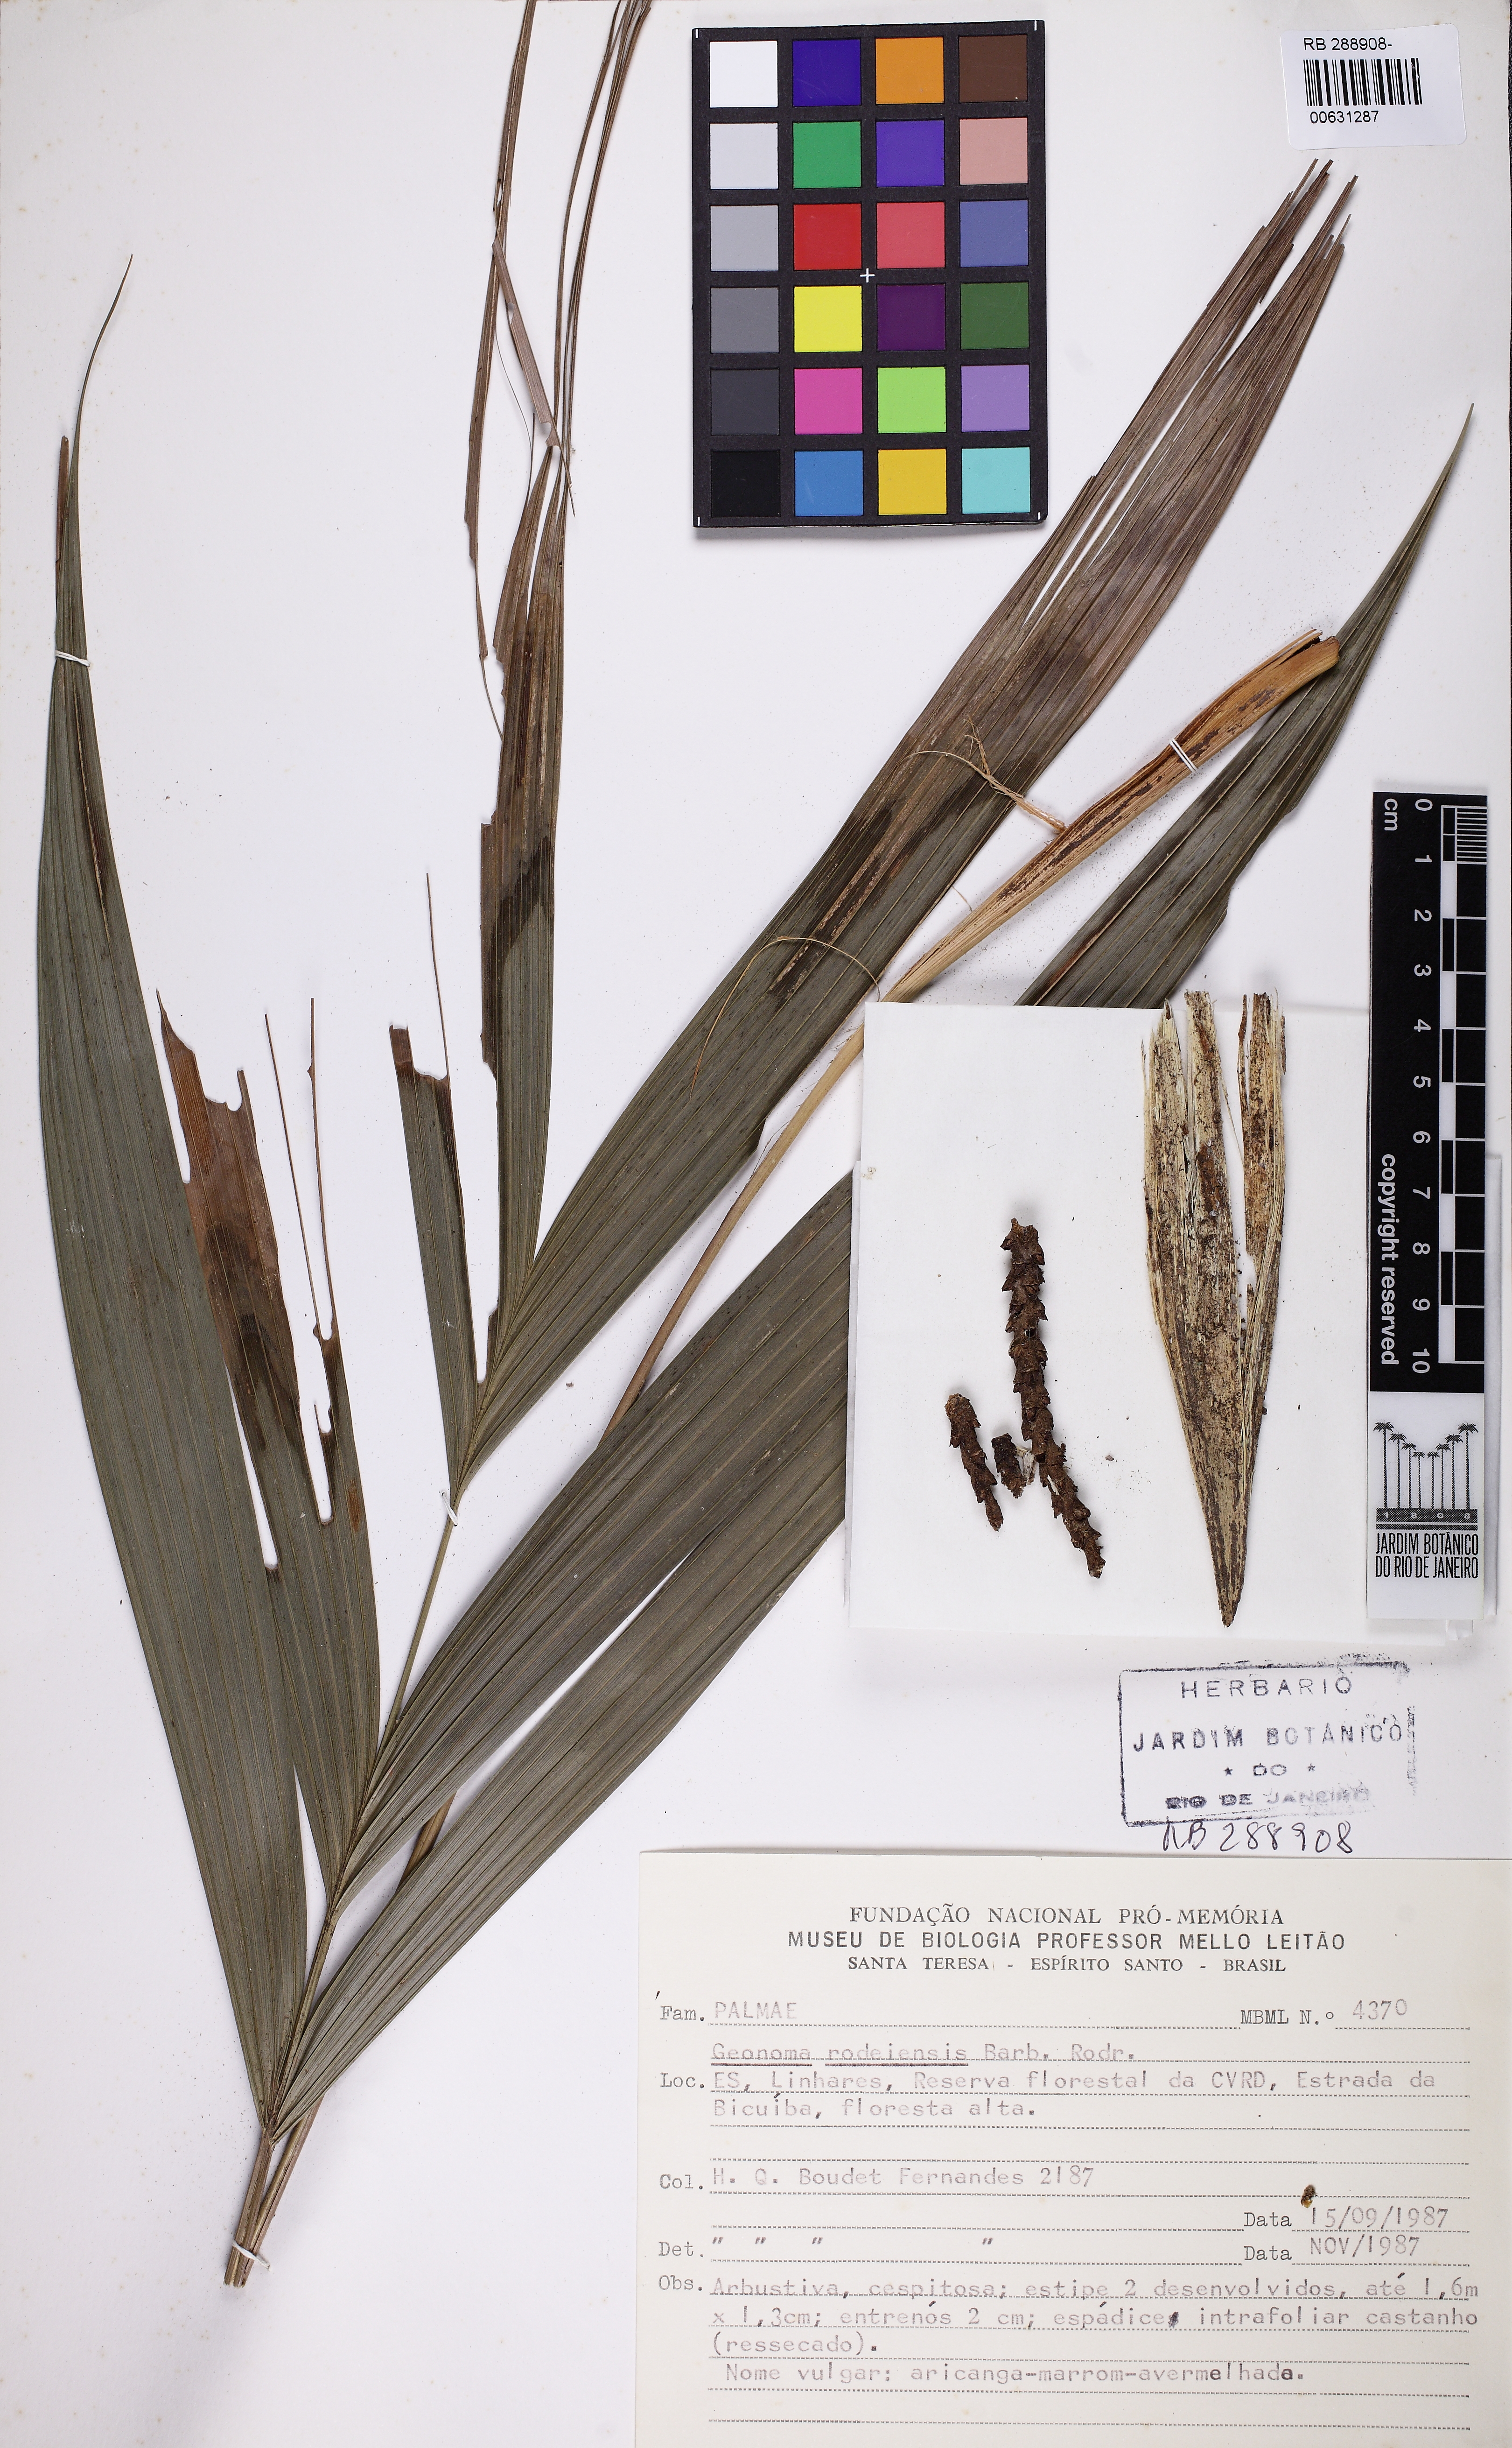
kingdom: Plantae
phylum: Tracheophyta
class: Liliopsida
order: Arecales
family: Arecaceae
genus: Geonoma
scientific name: Geonoma pohliana
